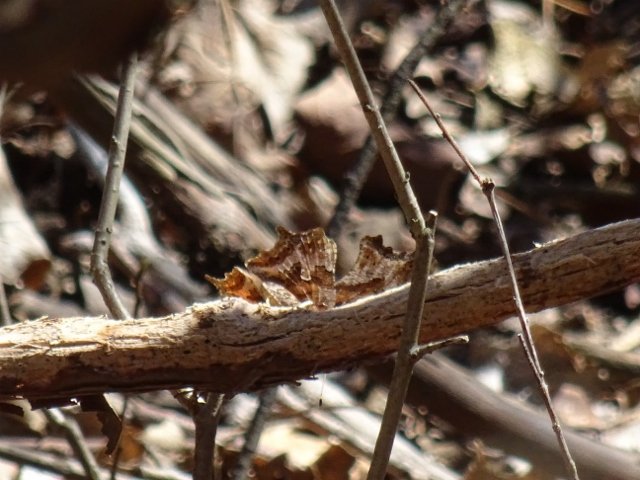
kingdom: Animalia
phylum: Arthropoda
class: Insecta
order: Lepidoptera
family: Nymphalidae
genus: Polygonia
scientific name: Polygonia comma
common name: Eastern Comma
